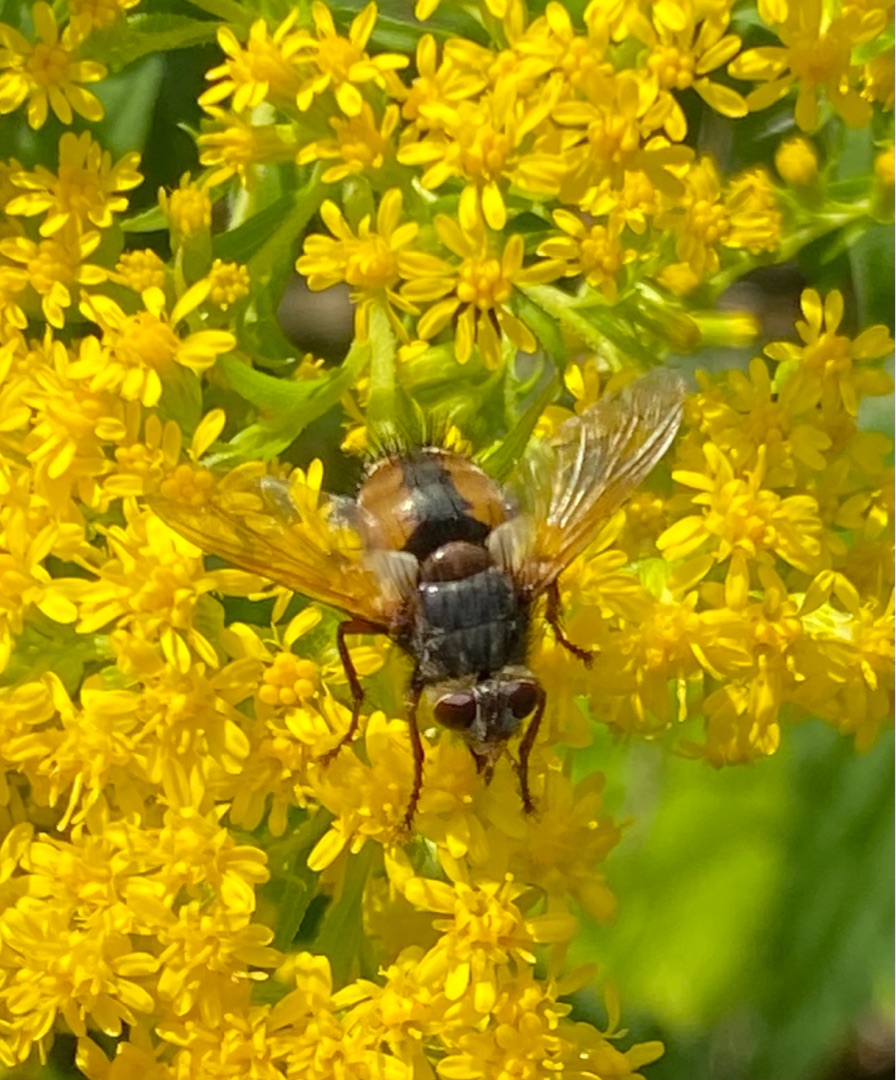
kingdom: Animalia
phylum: Arthropoda
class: Insecta
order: Diptera
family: Tachinidae
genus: Tachina
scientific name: Tachina fera
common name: Mellemfluen oskar
